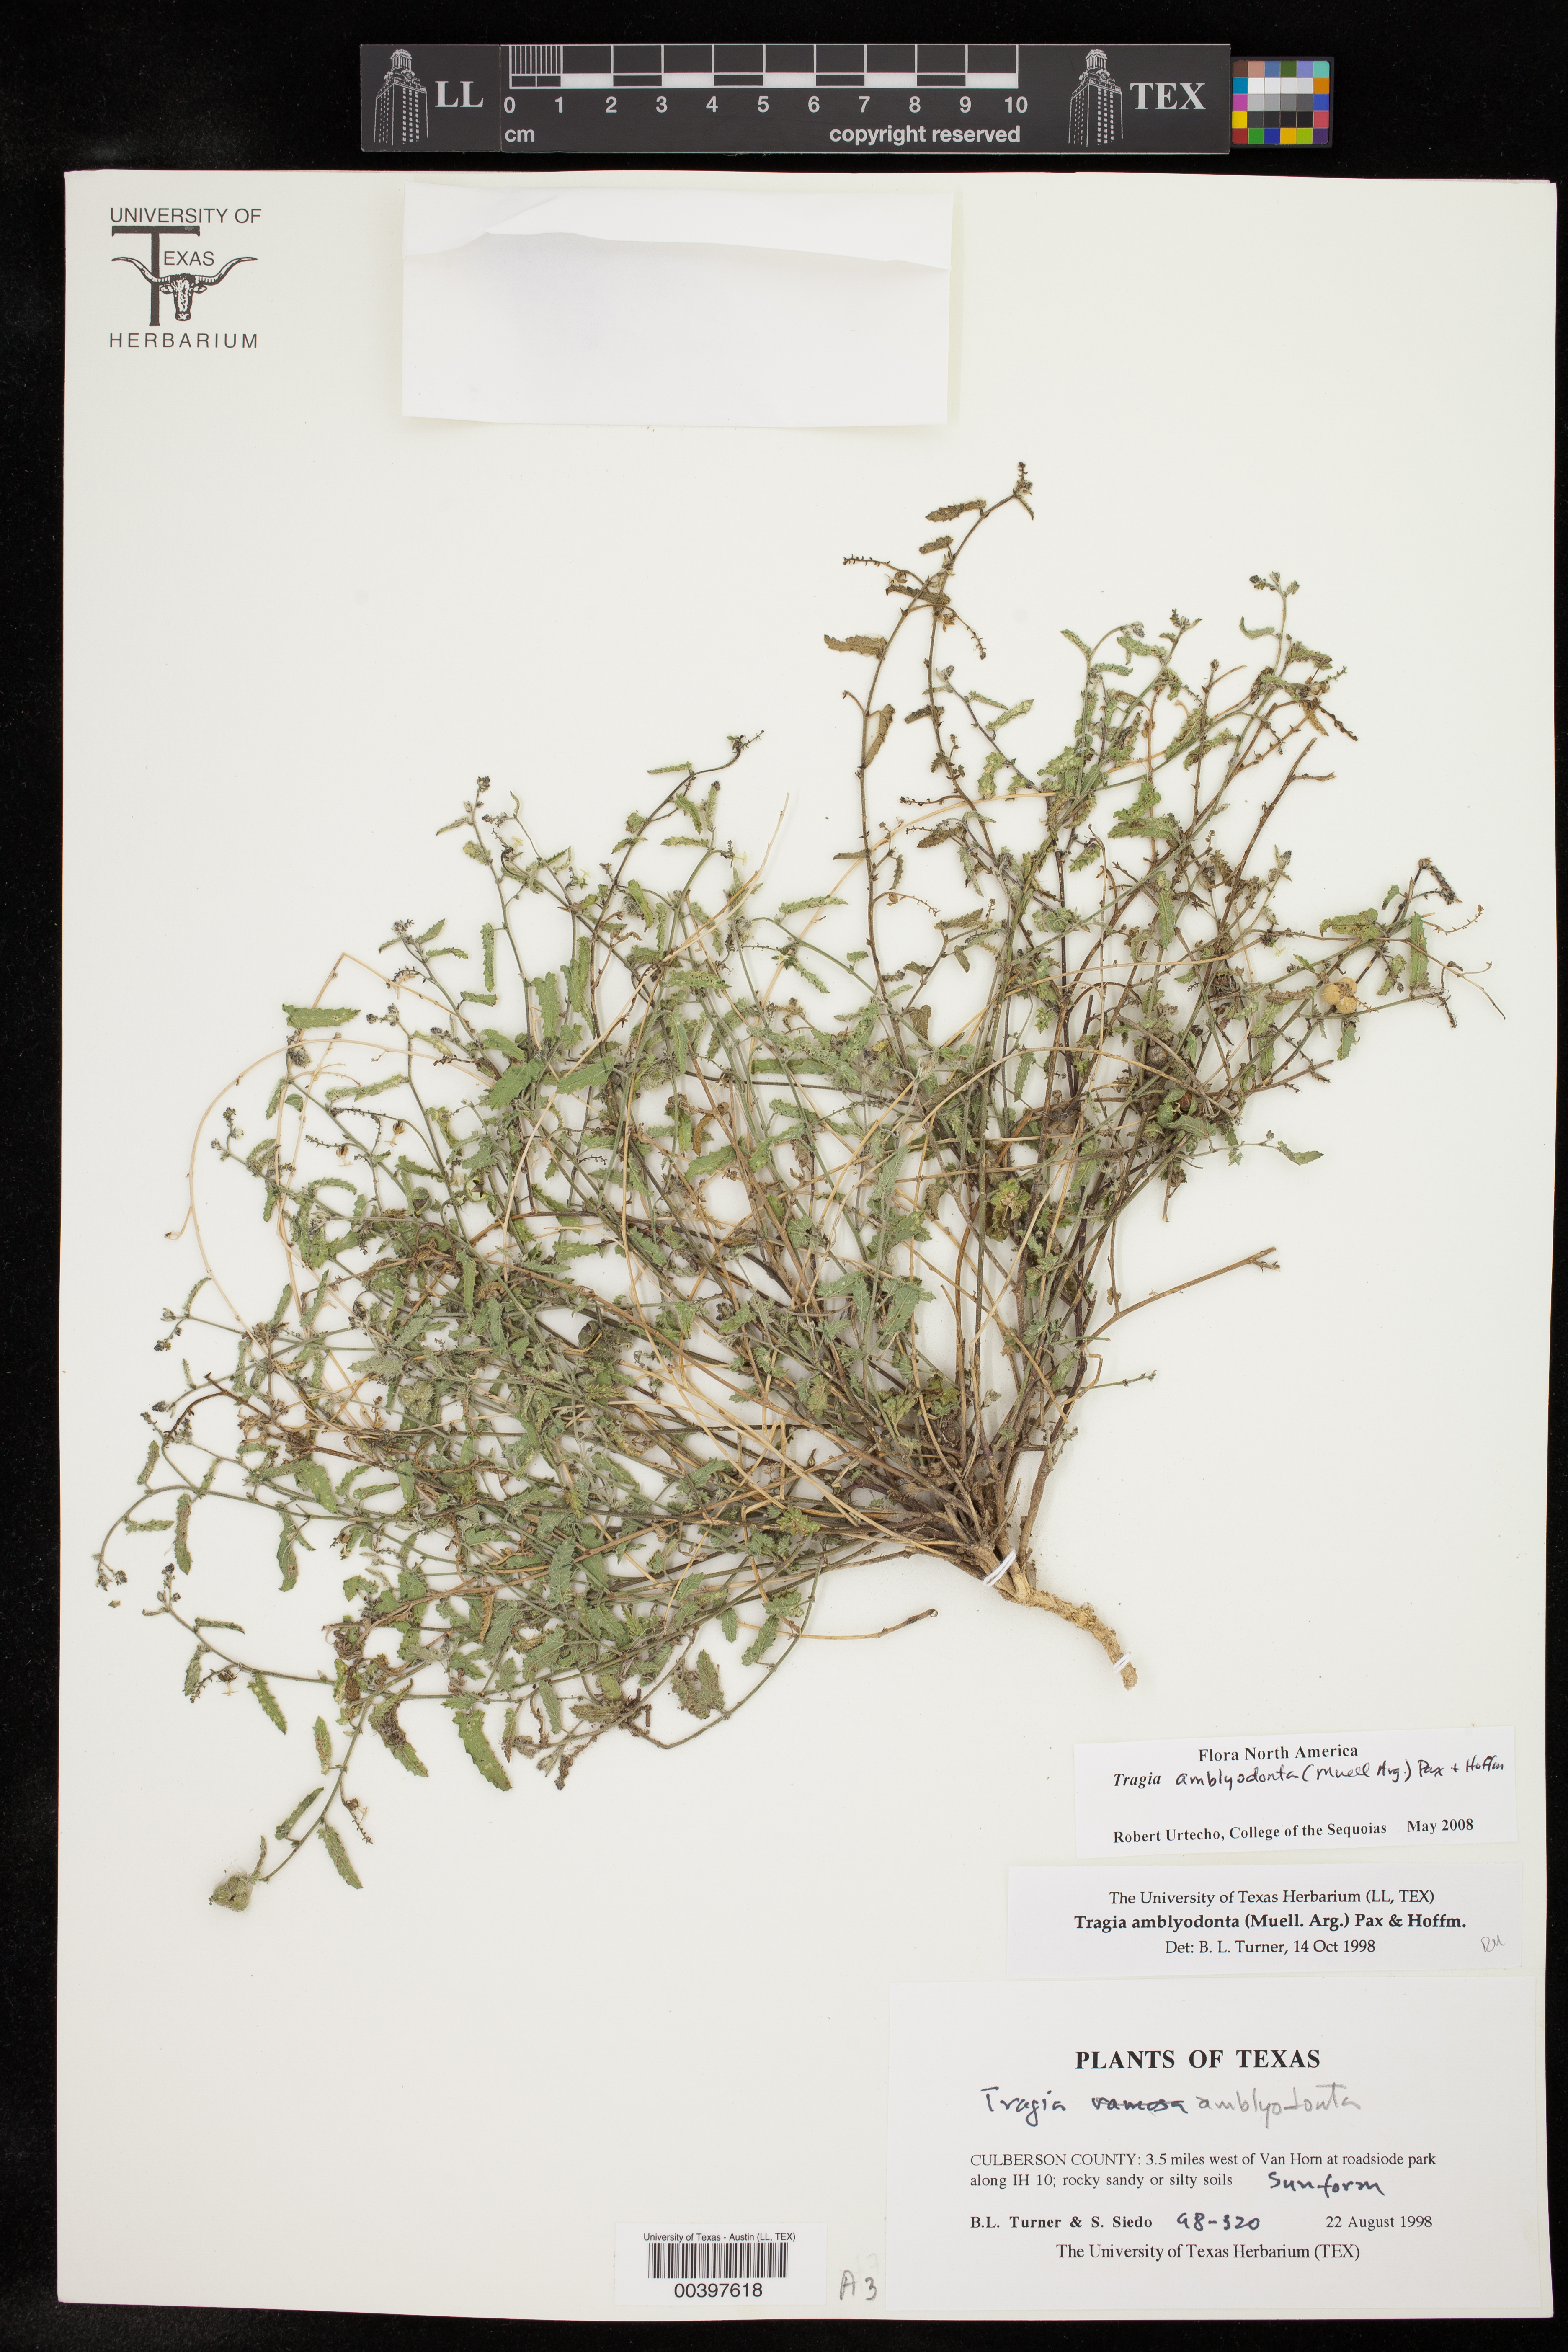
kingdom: Plantae
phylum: Tracheophyta
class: Magnoliopsida
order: Malpighiales
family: Euphorbiaceae
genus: Tragia
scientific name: Tragia amblyodonta
